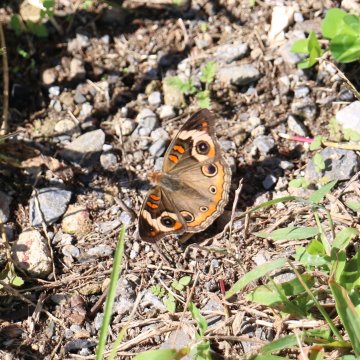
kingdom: Animalia
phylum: Arthropoda
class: Insecta
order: Lepidoptera
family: Nymphalidae
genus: Junonia
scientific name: Junonia coenia
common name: Common Buckeye
